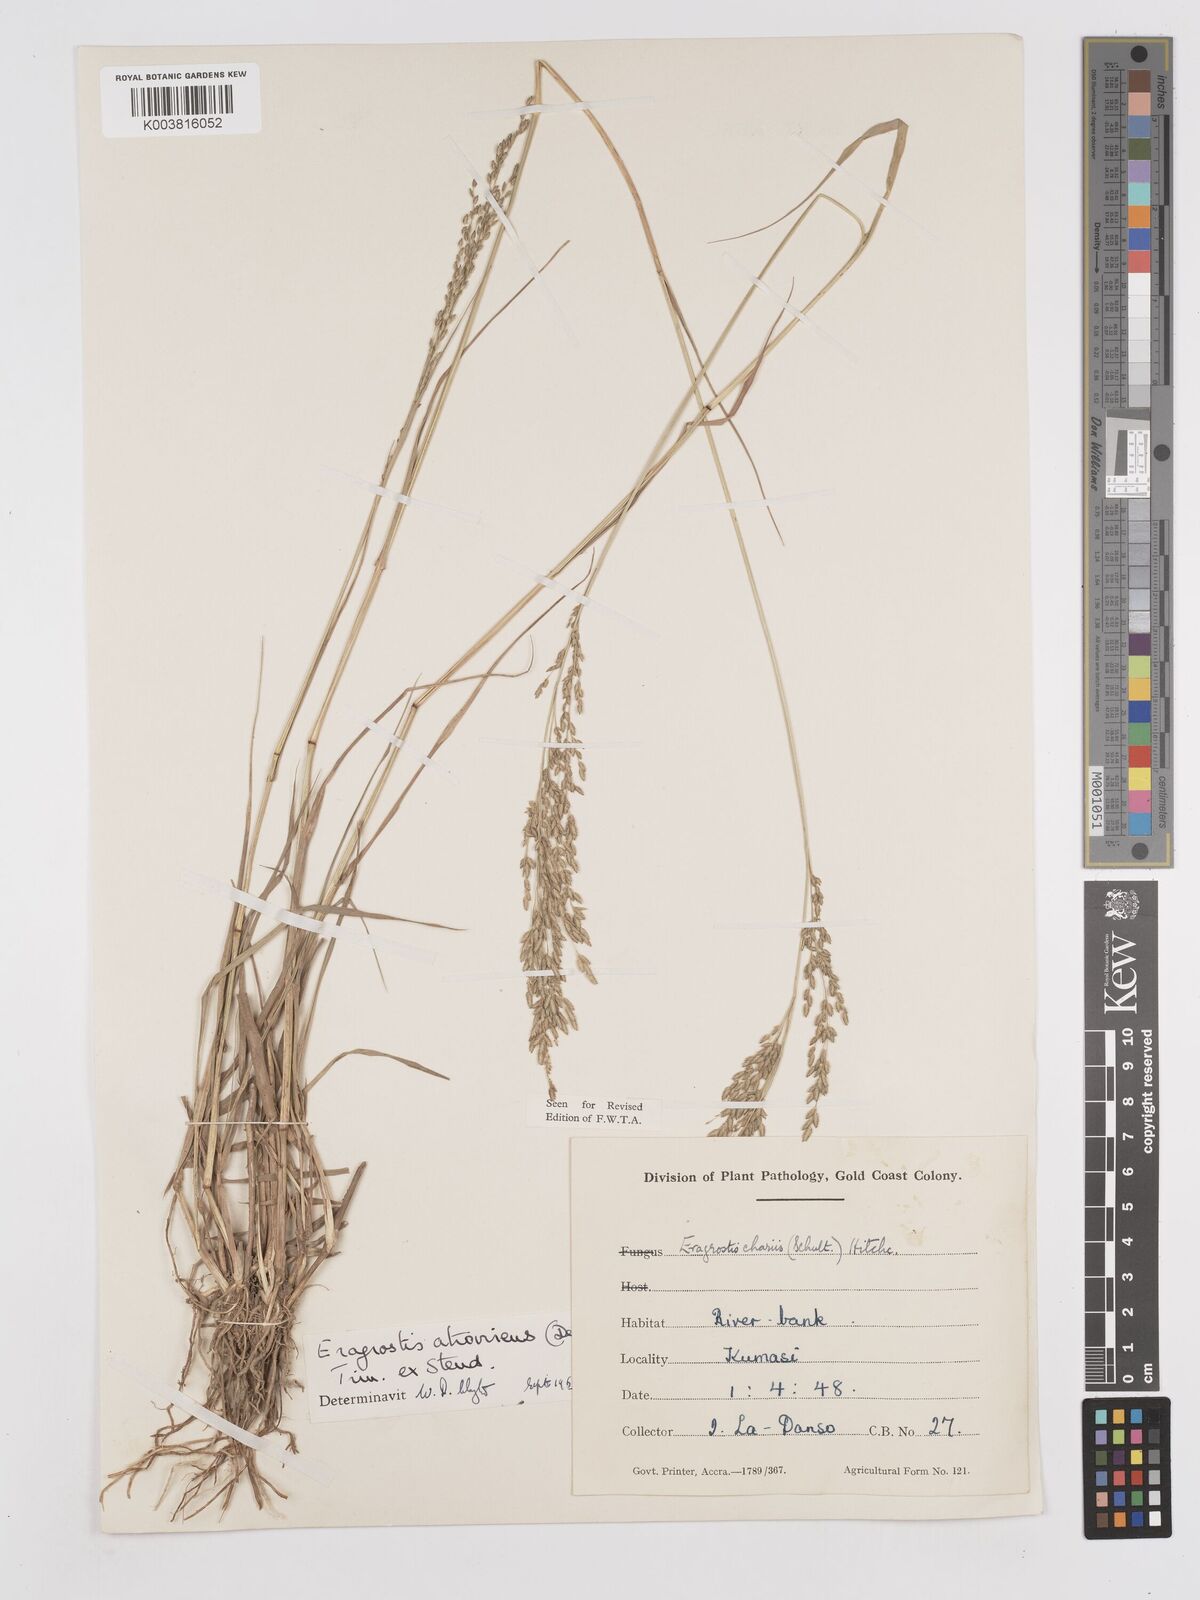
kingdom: Plantae
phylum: Tracheophyta
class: Liliopsida
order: Poales
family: Poaceae
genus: Eragrostis
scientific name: Eragrostis atrovirens
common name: Thalia lovegrass
